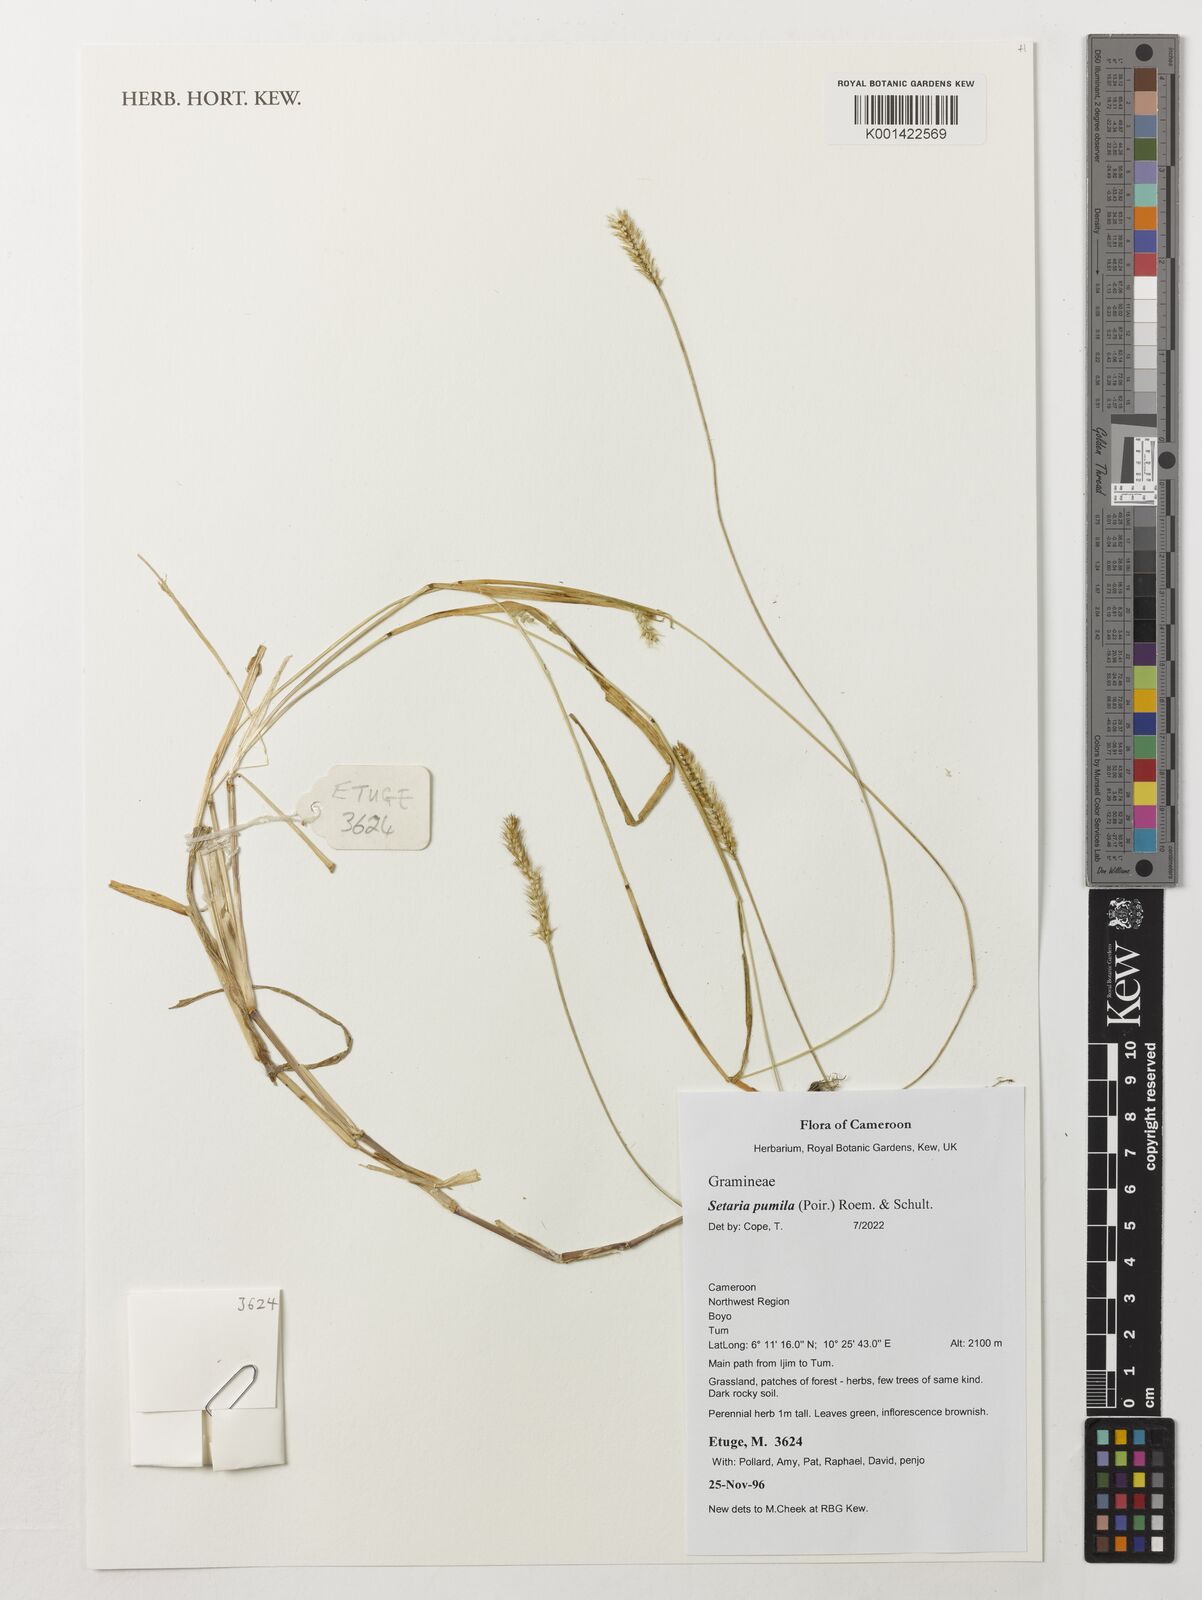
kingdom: Plantae
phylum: Tracheophyta
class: Liliopsida
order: Poales
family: Poaceae
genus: Setaria
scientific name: Setaria pumila
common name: Yellow bristle-grass
